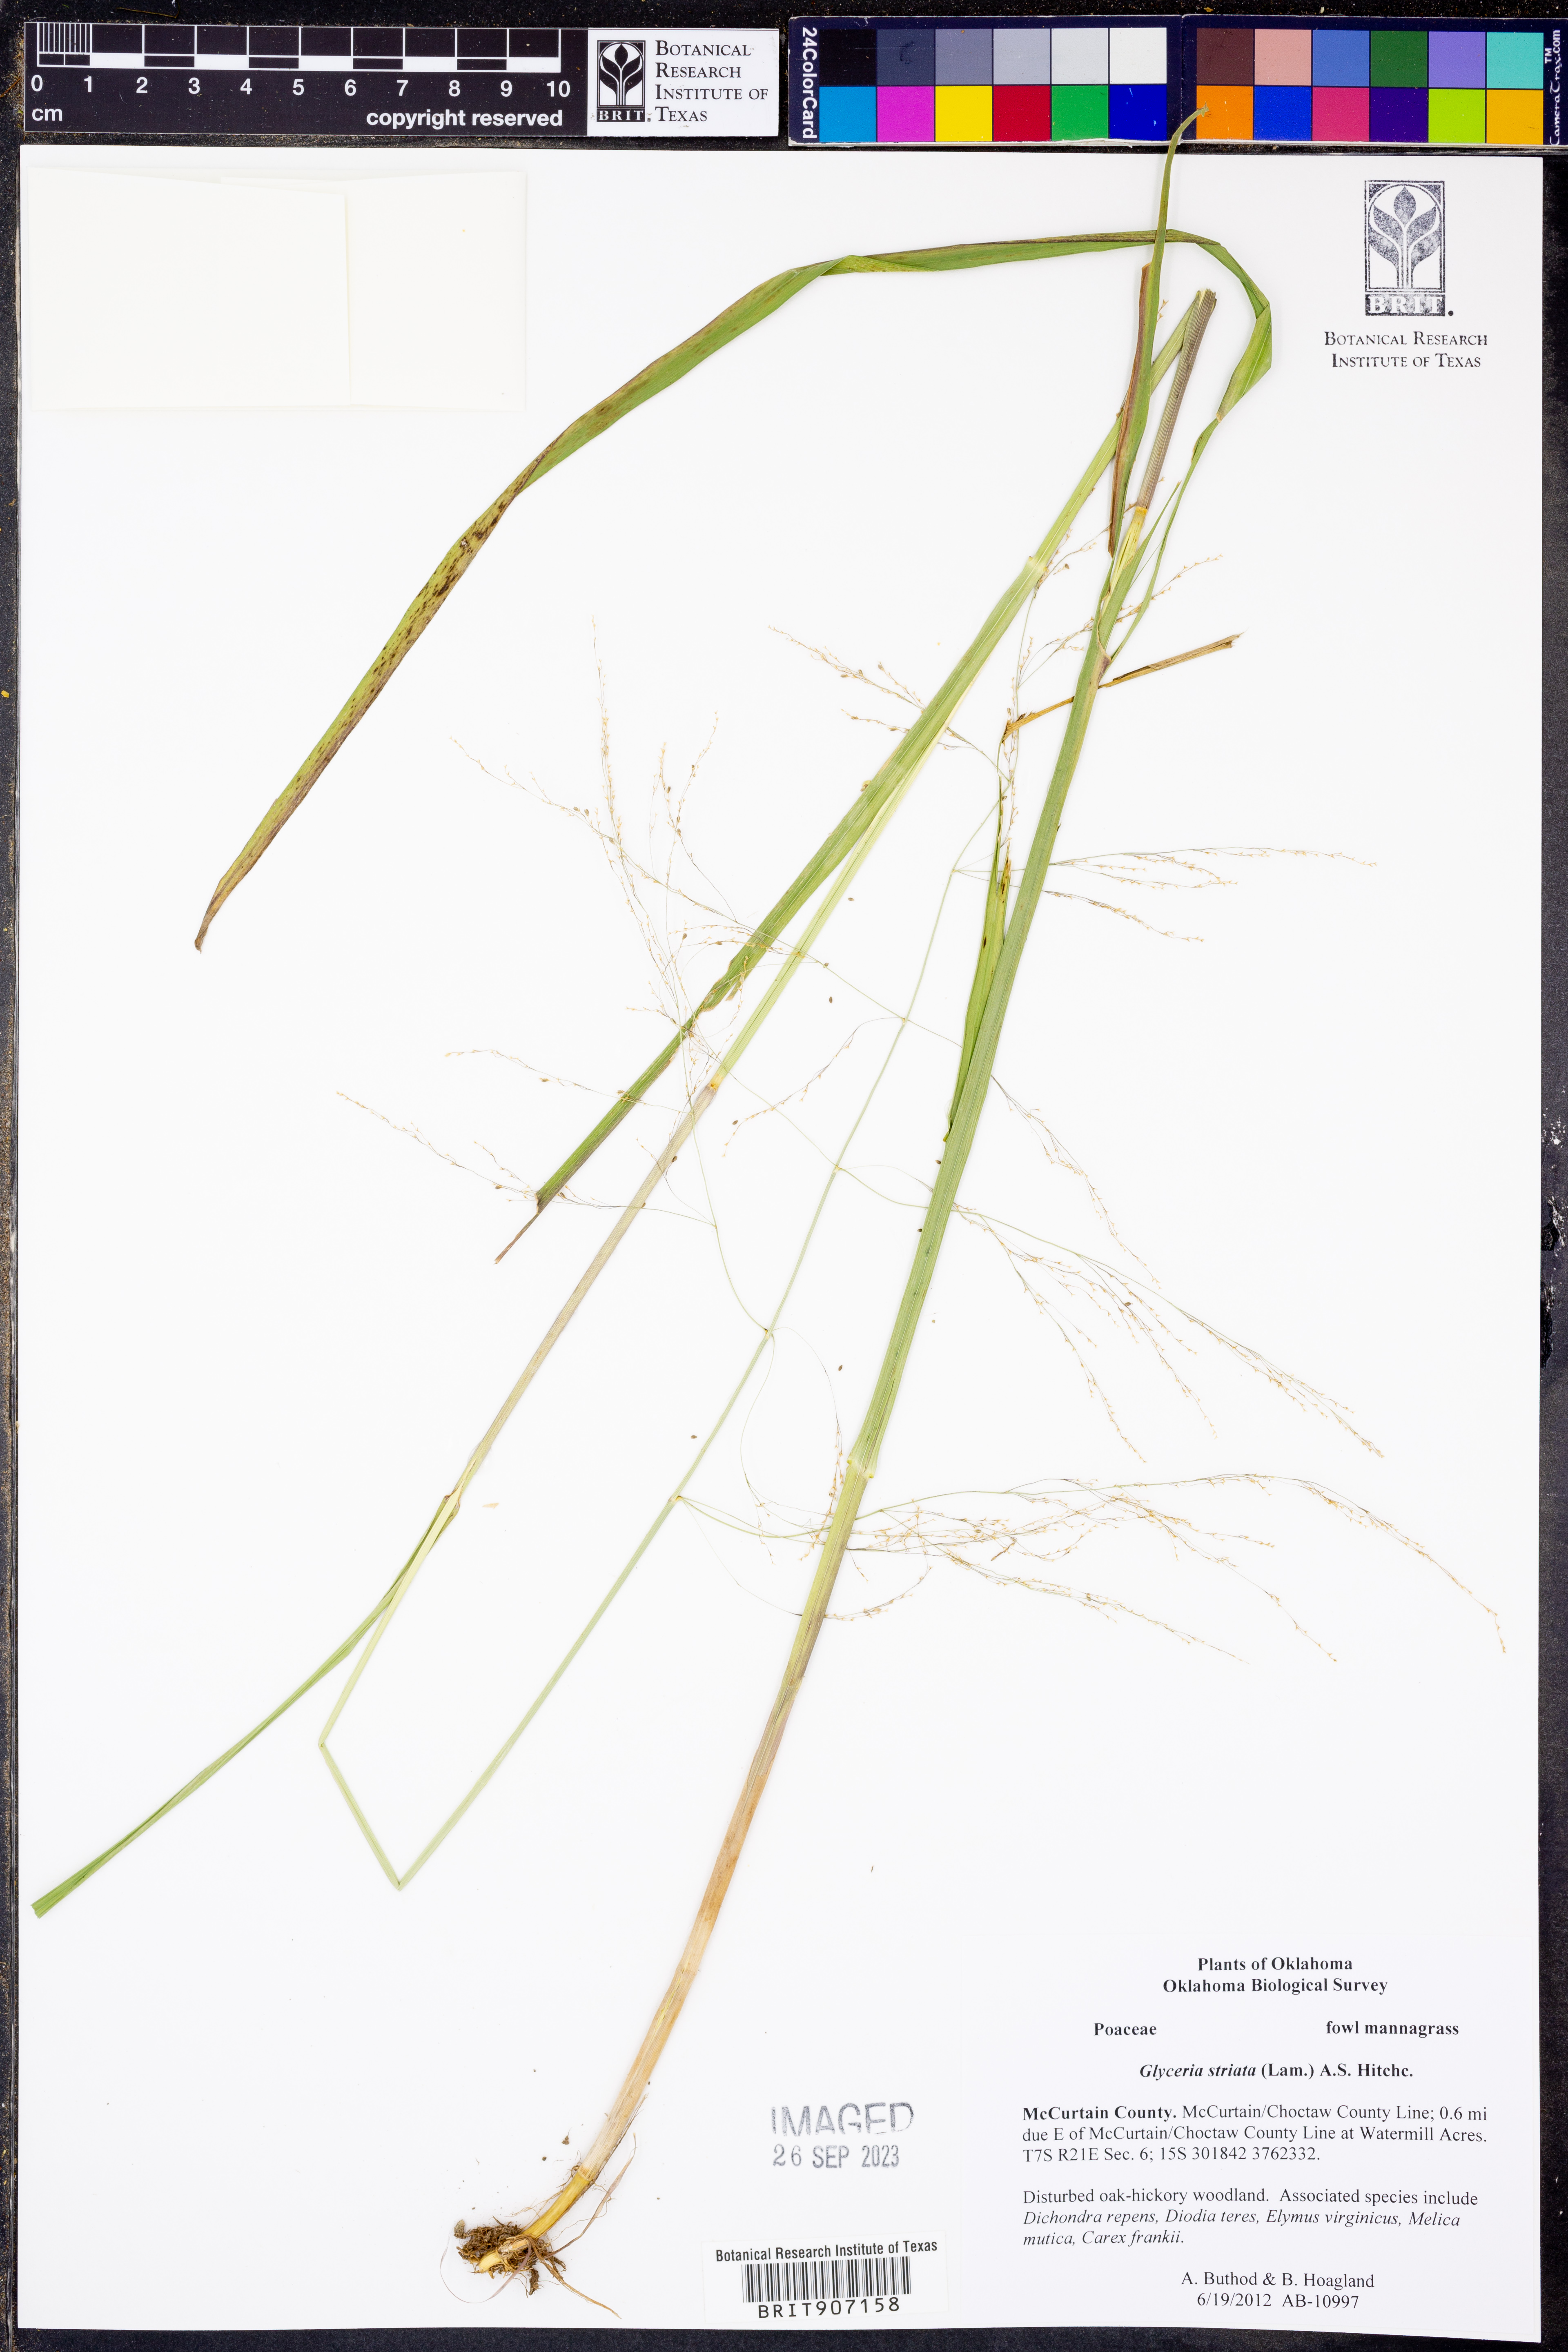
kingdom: Plantae
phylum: Tracheophyta
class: Liliopsida
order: Poales
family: Poaceae
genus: Glyceria
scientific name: Glyceria striata
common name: Fowl manna grass
